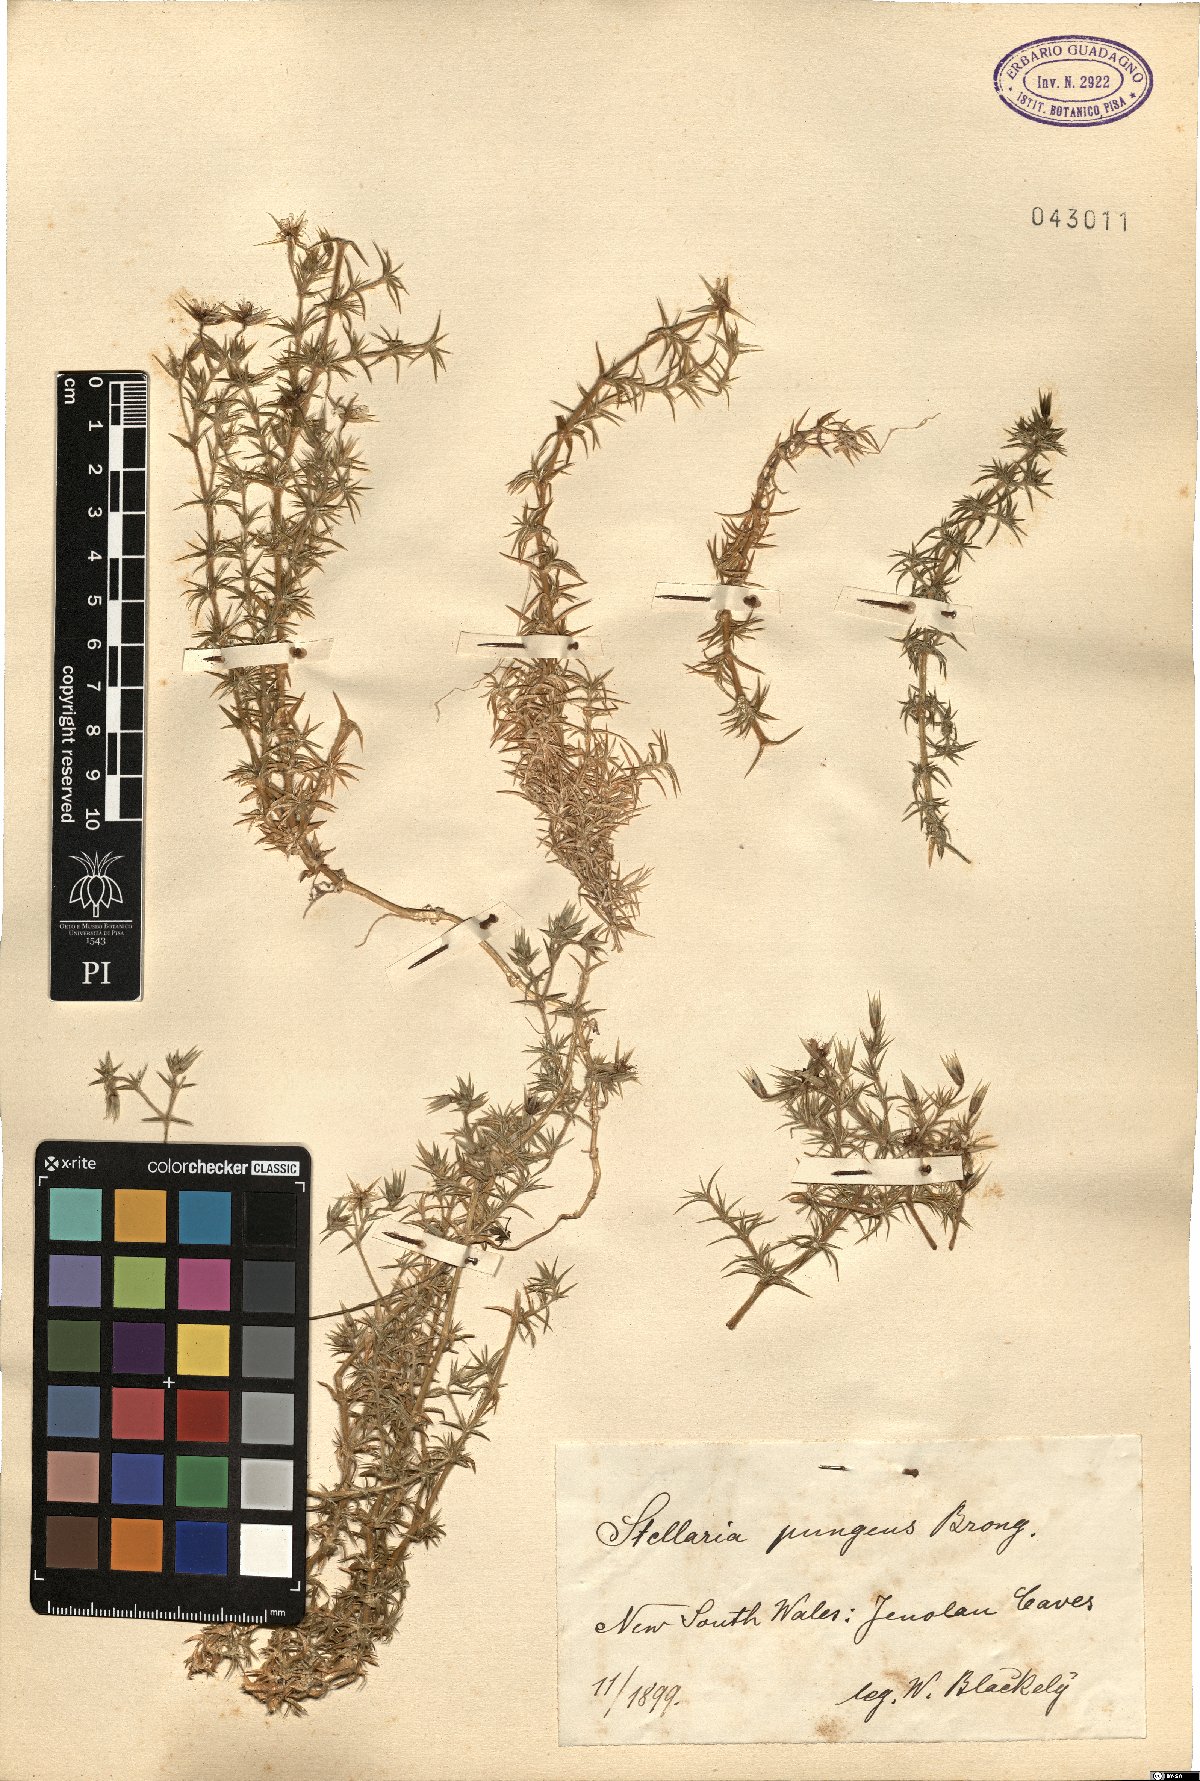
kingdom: Plantae
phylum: Tracheophyta
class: Magnoliopsida
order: Caryophyllales
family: Caryophyllaceae
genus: Stellaria
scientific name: Stellaria pungens
